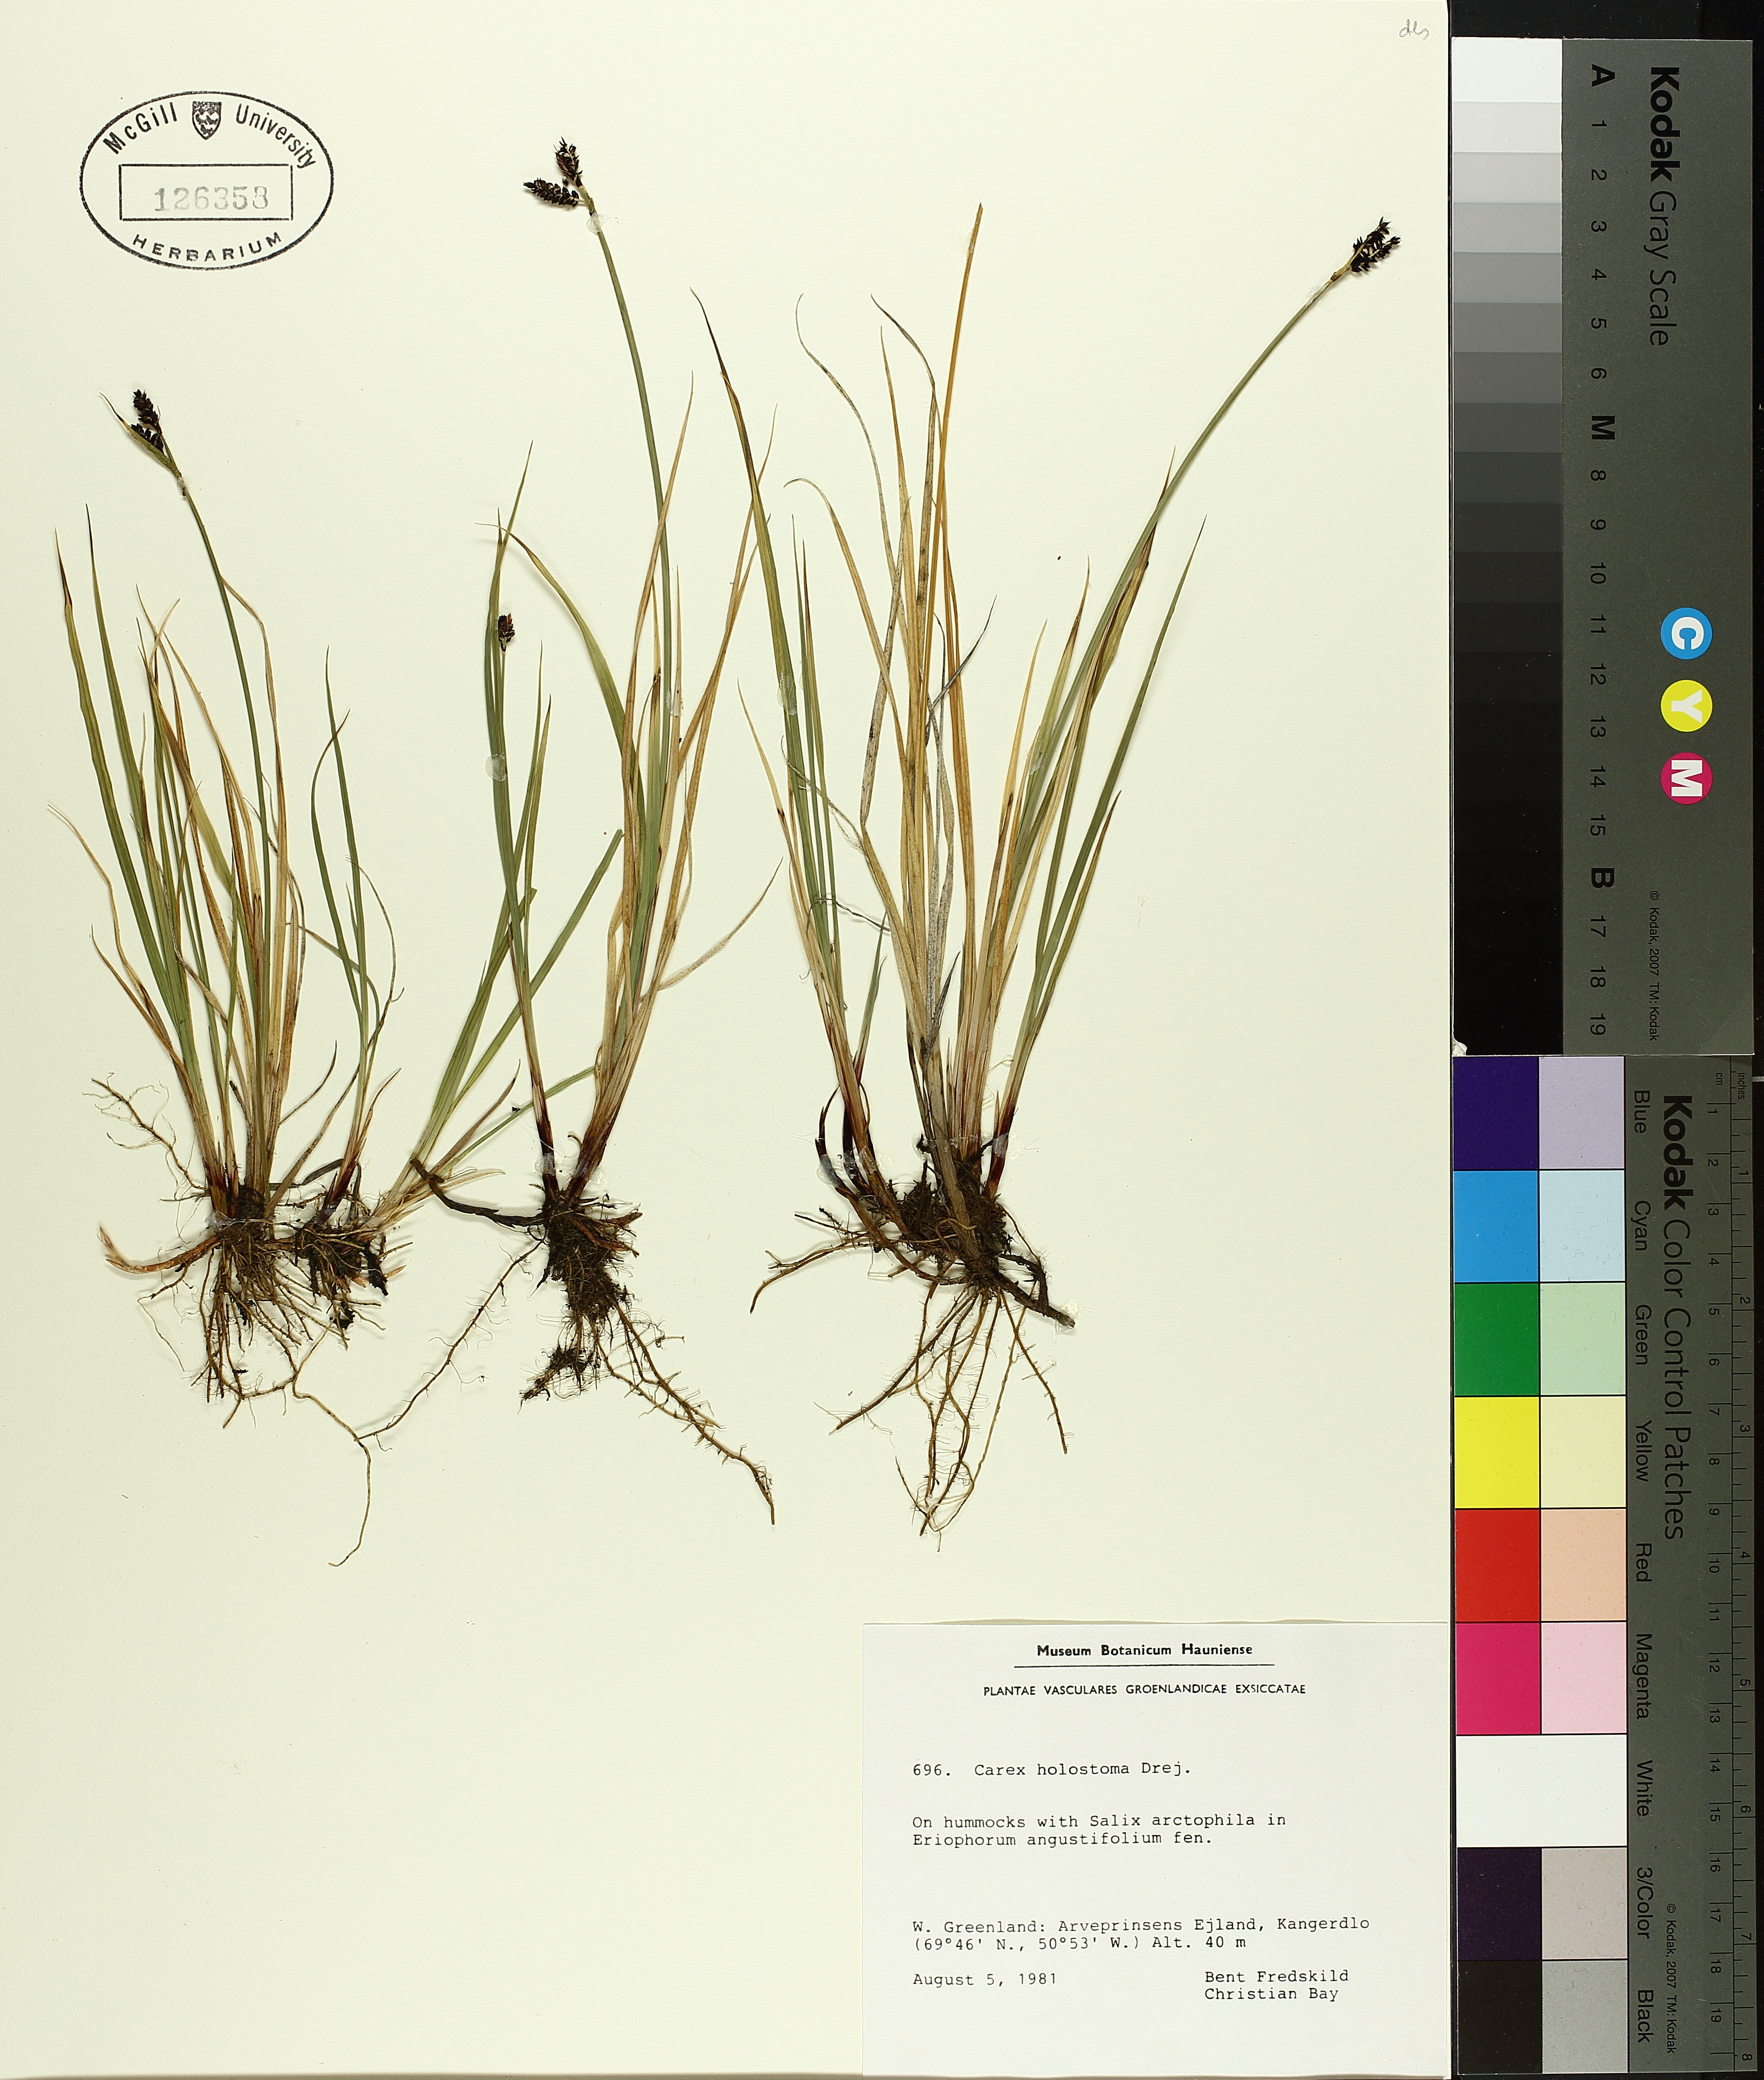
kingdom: Plantae
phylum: Tracheophyta
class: Liliopsida
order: Poales
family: Cyperaceae
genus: Carex
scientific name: Carex holostoma
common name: Arctic marsh sedge
